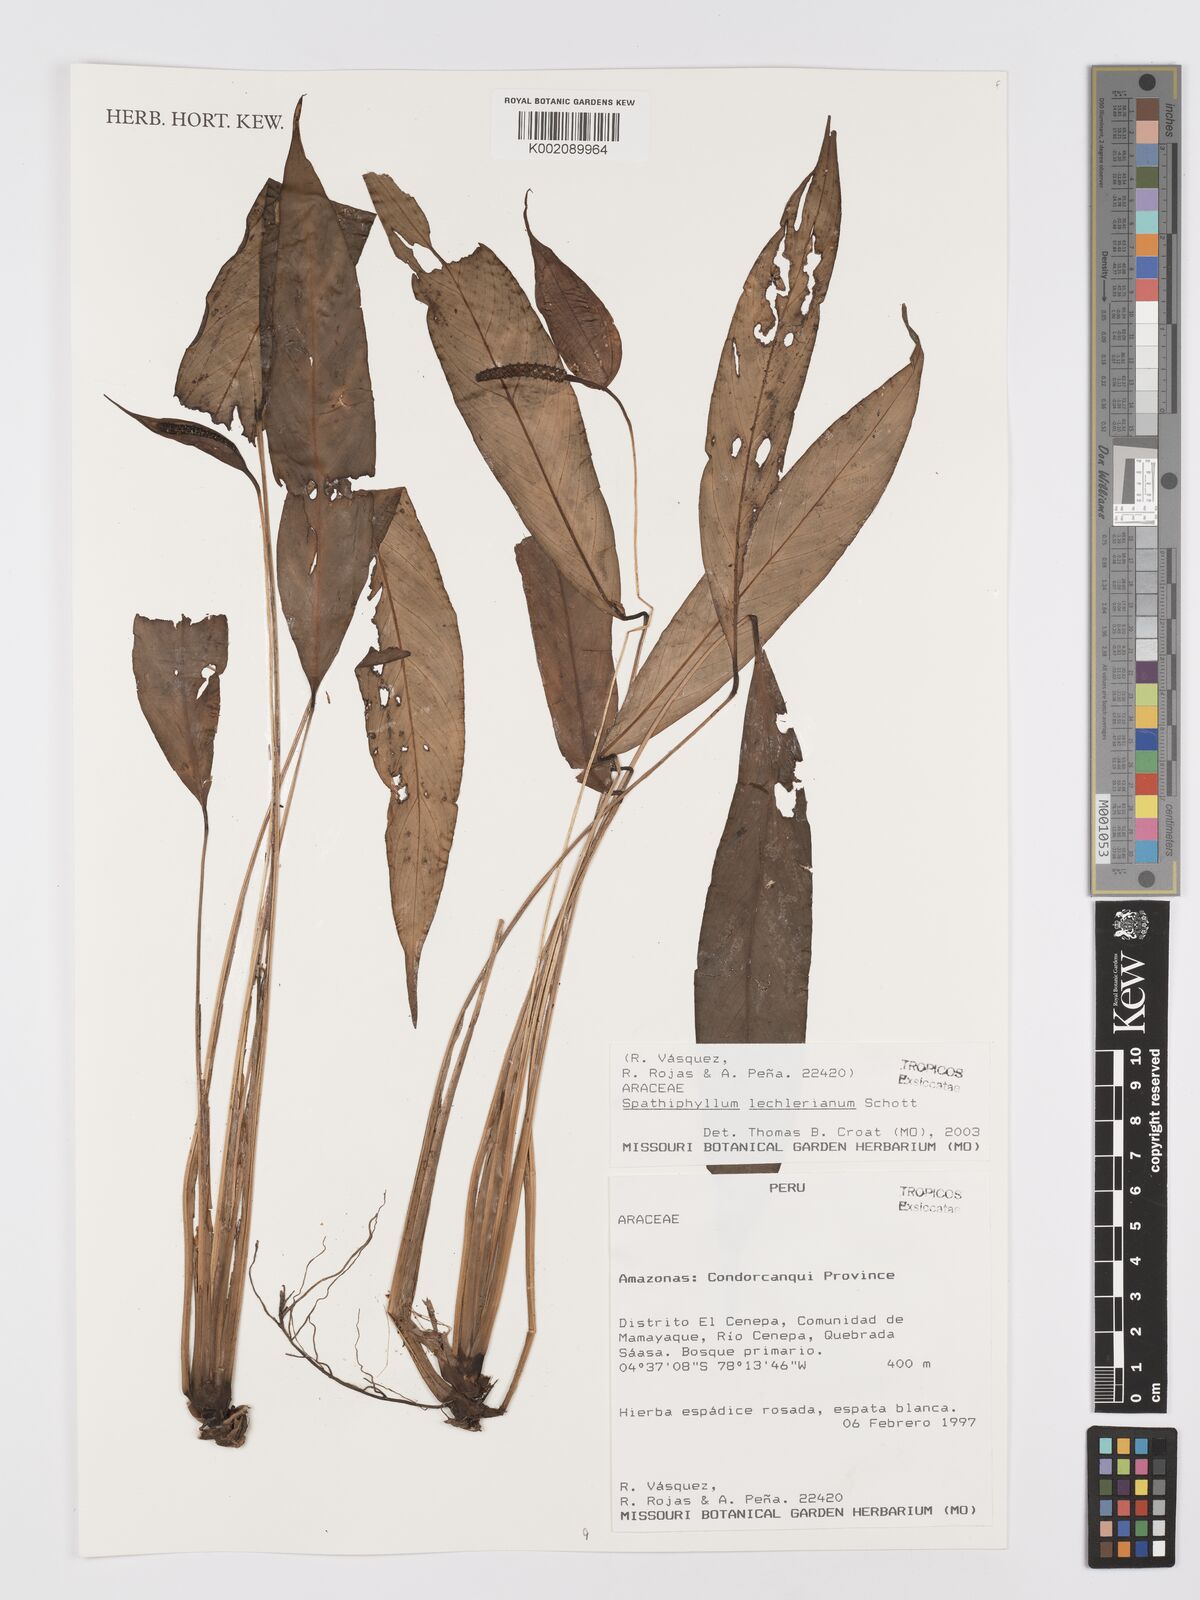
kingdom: Plantae
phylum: Tracheophyta
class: Liliopsida
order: Alismatales
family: Araceae
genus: Spathiphyllum
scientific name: Spathiphyllum lechlerianum
